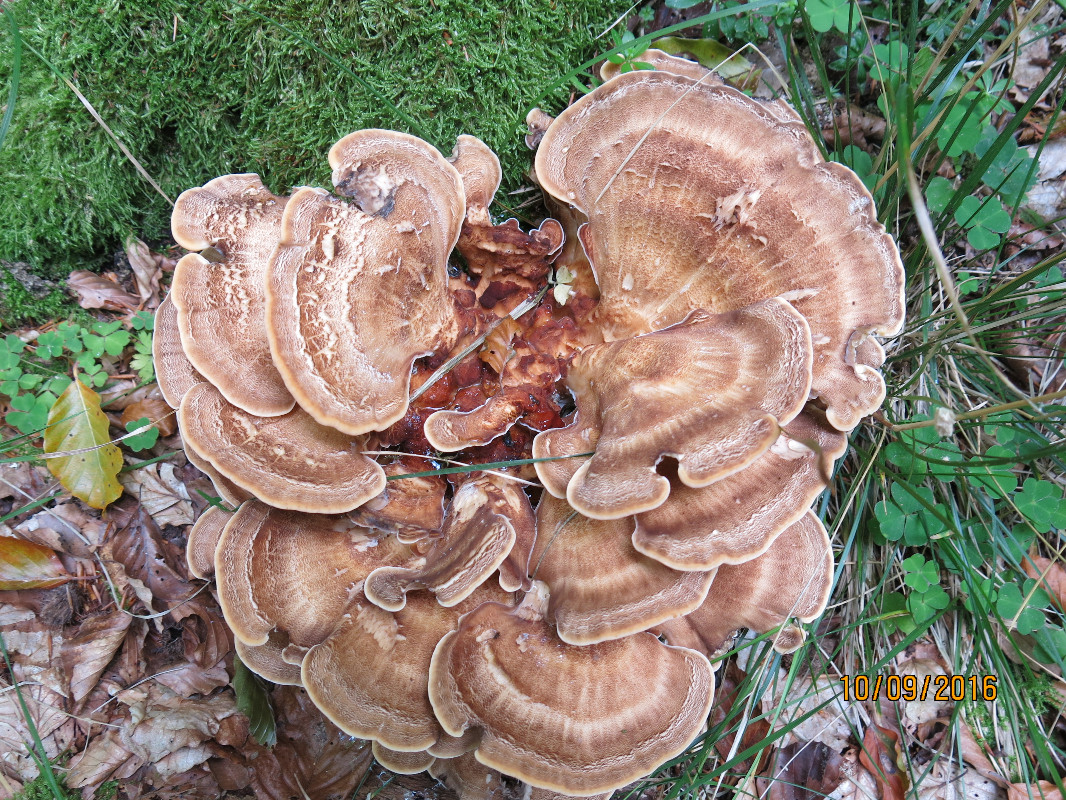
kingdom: Fungi
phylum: Basidiomycota
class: Agaricomycetes
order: Polyporales
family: Meripilaceae
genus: Meripilus
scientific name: Meripilus giganteus
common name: kæmpeporesvamp
